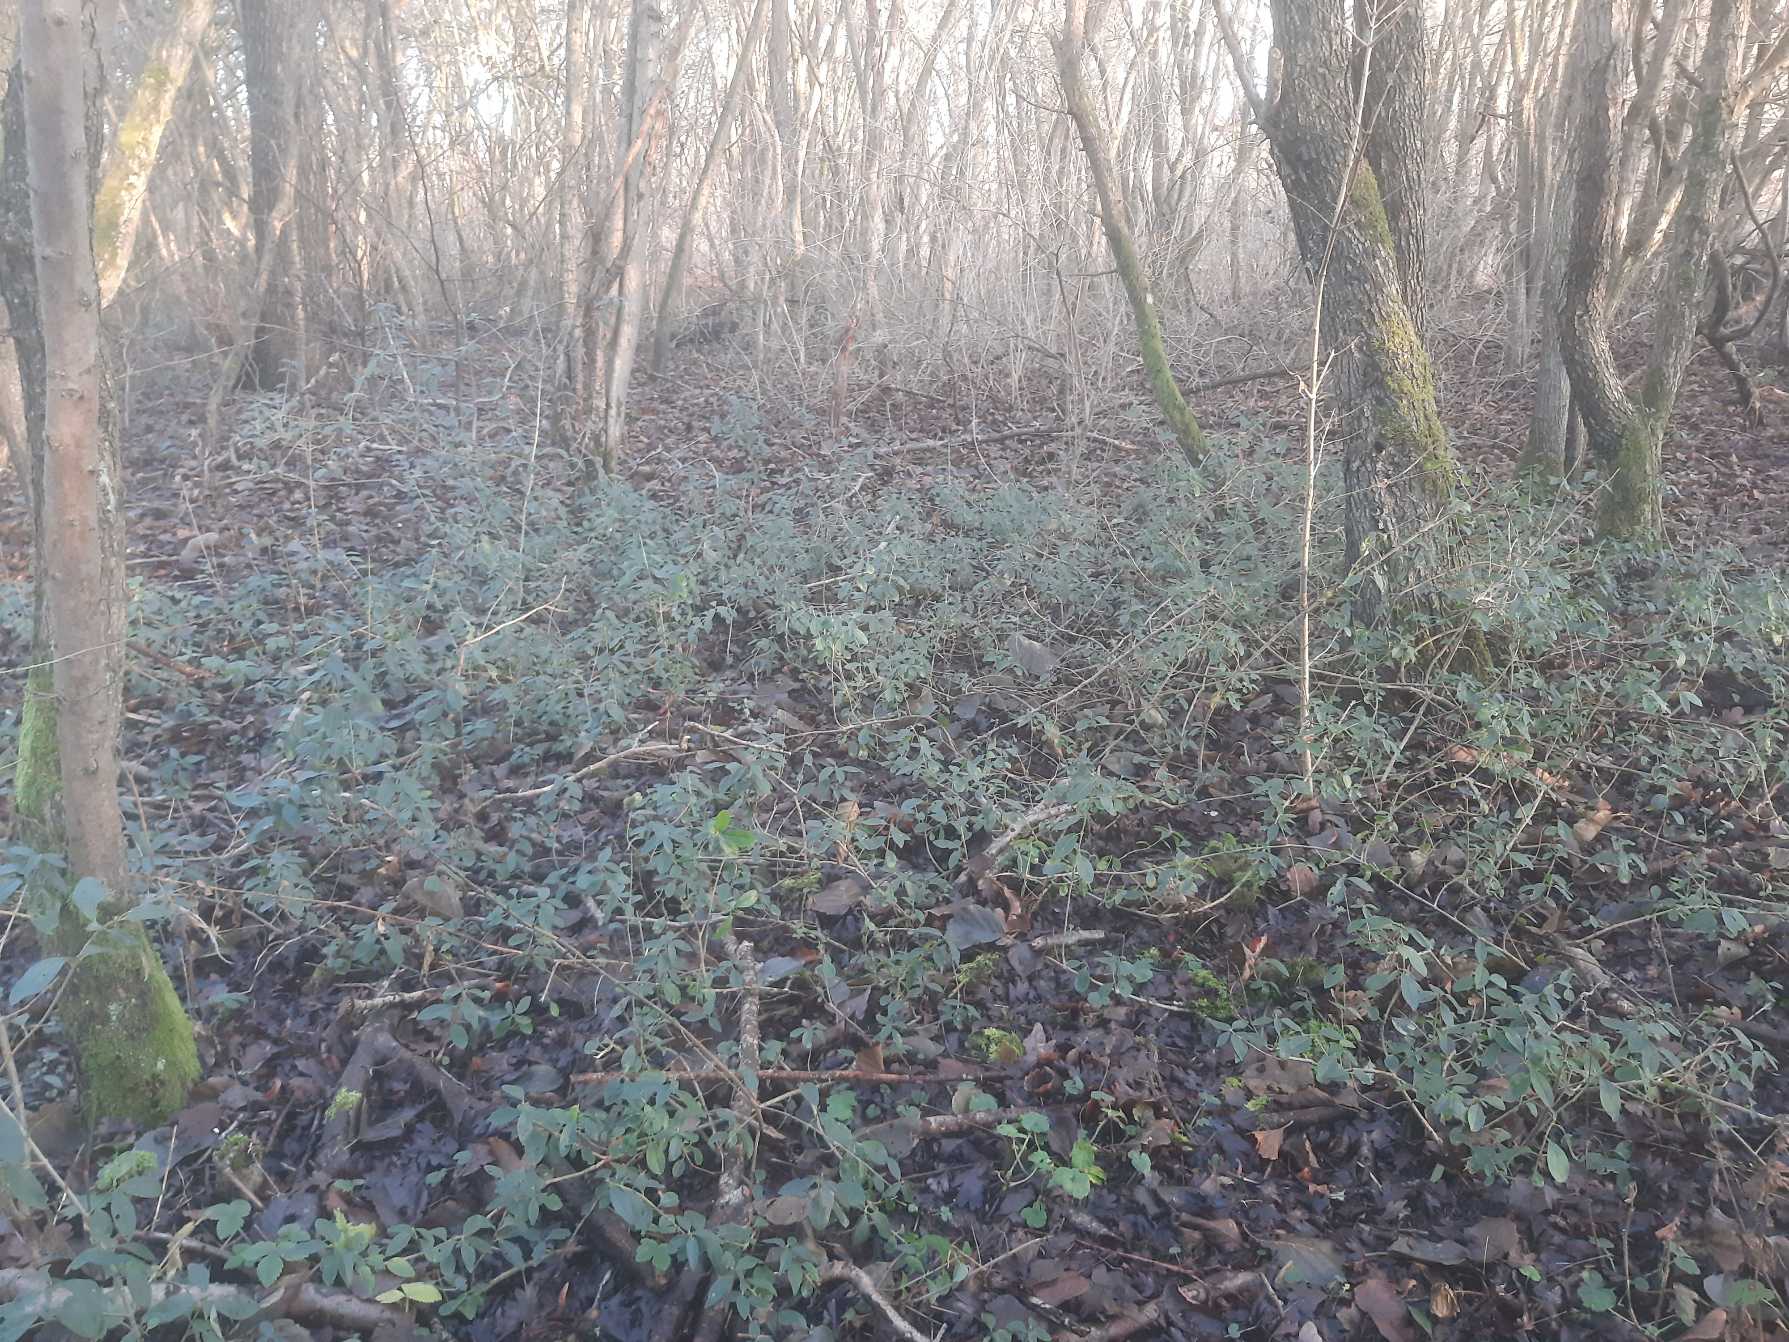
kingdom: Plantae
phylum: Tracheophyta
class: Magnoliopsida
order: Lamiales
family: Oleaceae
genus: Ligustrum
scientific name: Ligustrum vulgare
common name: Liguster
